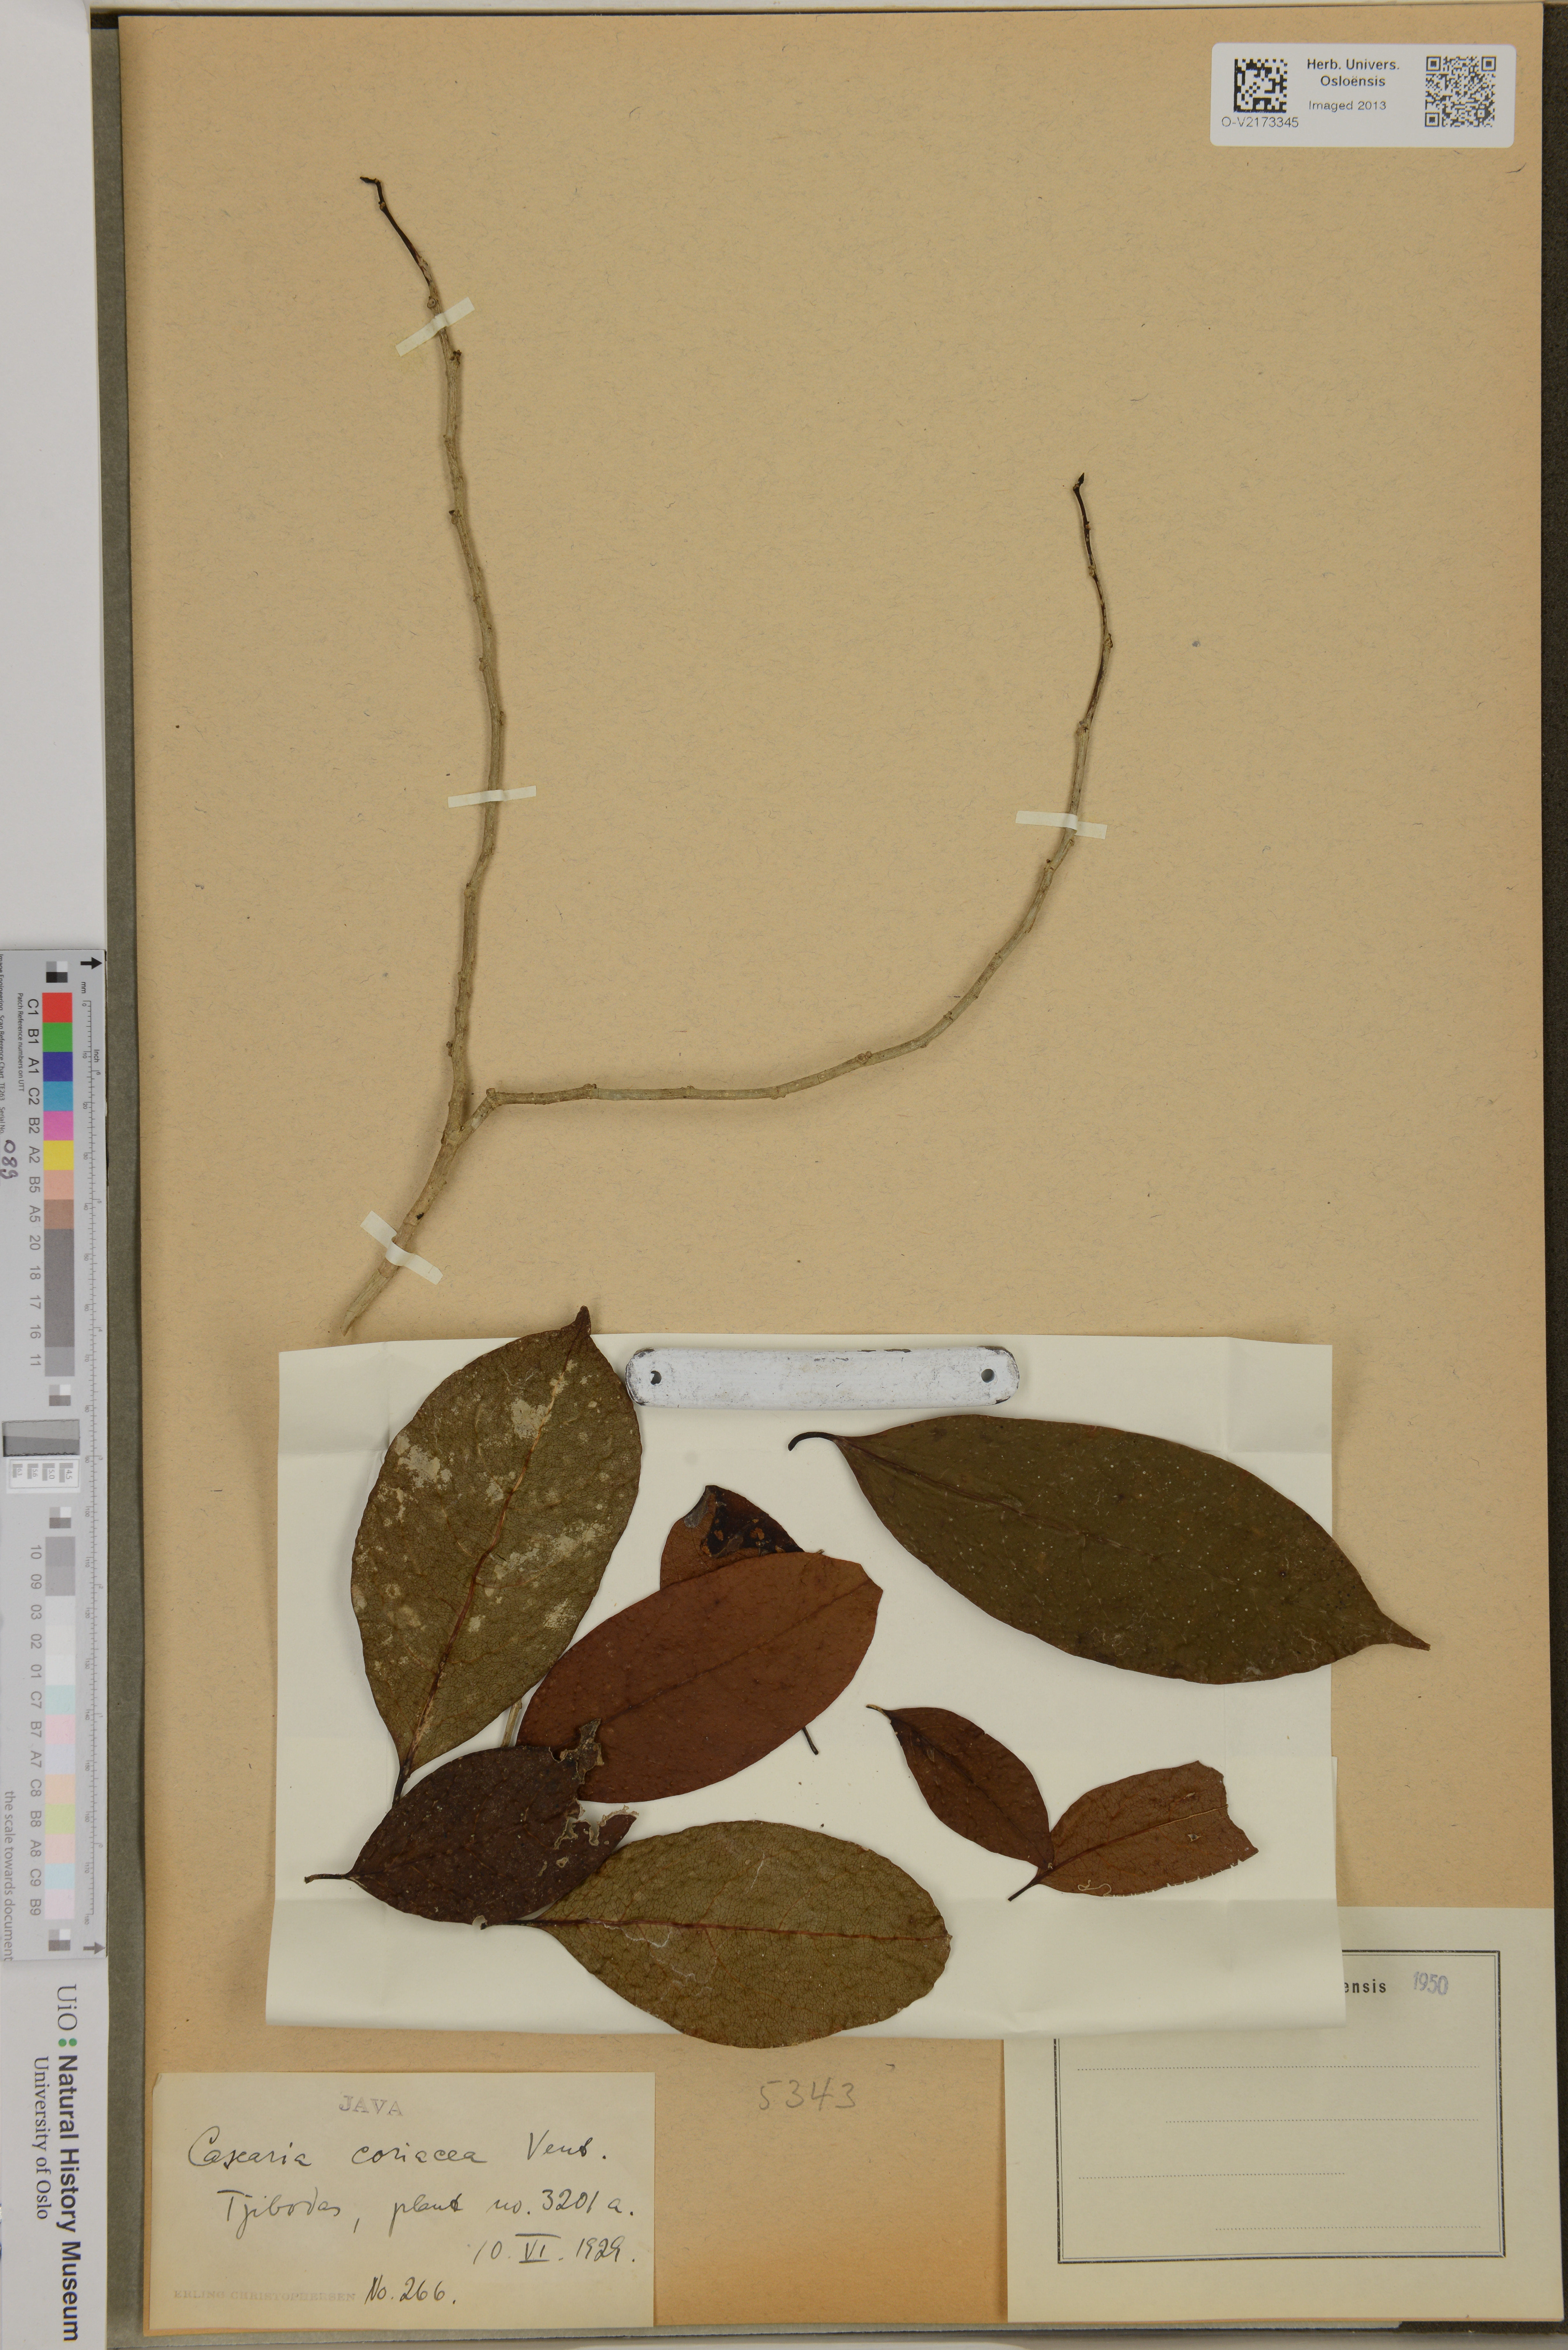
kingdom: Plantae
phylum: Tracheophyta
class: Magnoliopsida
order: Malpighiales
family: Salicaceae
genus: Casearia
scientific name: Casearia coriacea
